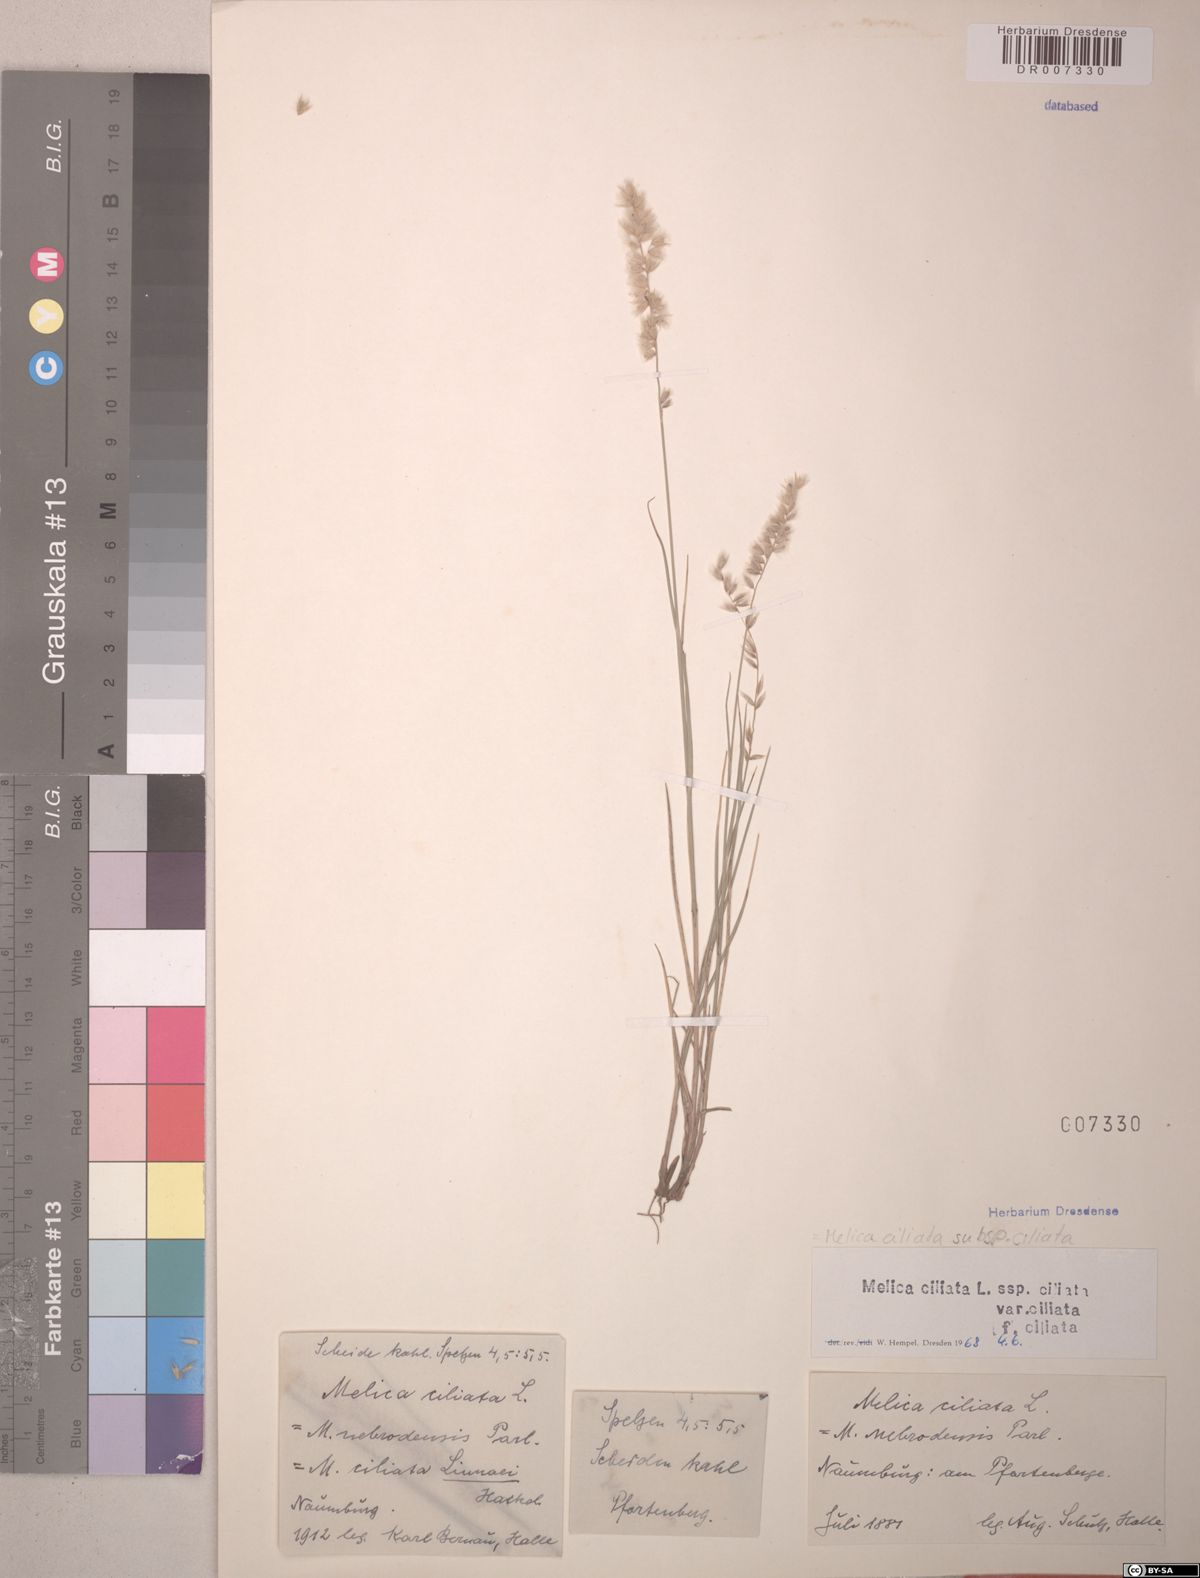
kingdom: Plantae
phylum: Tracheophyta
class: Liliopsida
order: Poales
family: Poaceae
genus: Melica
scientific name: Melica ciliata
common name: Hairy melicgrass
